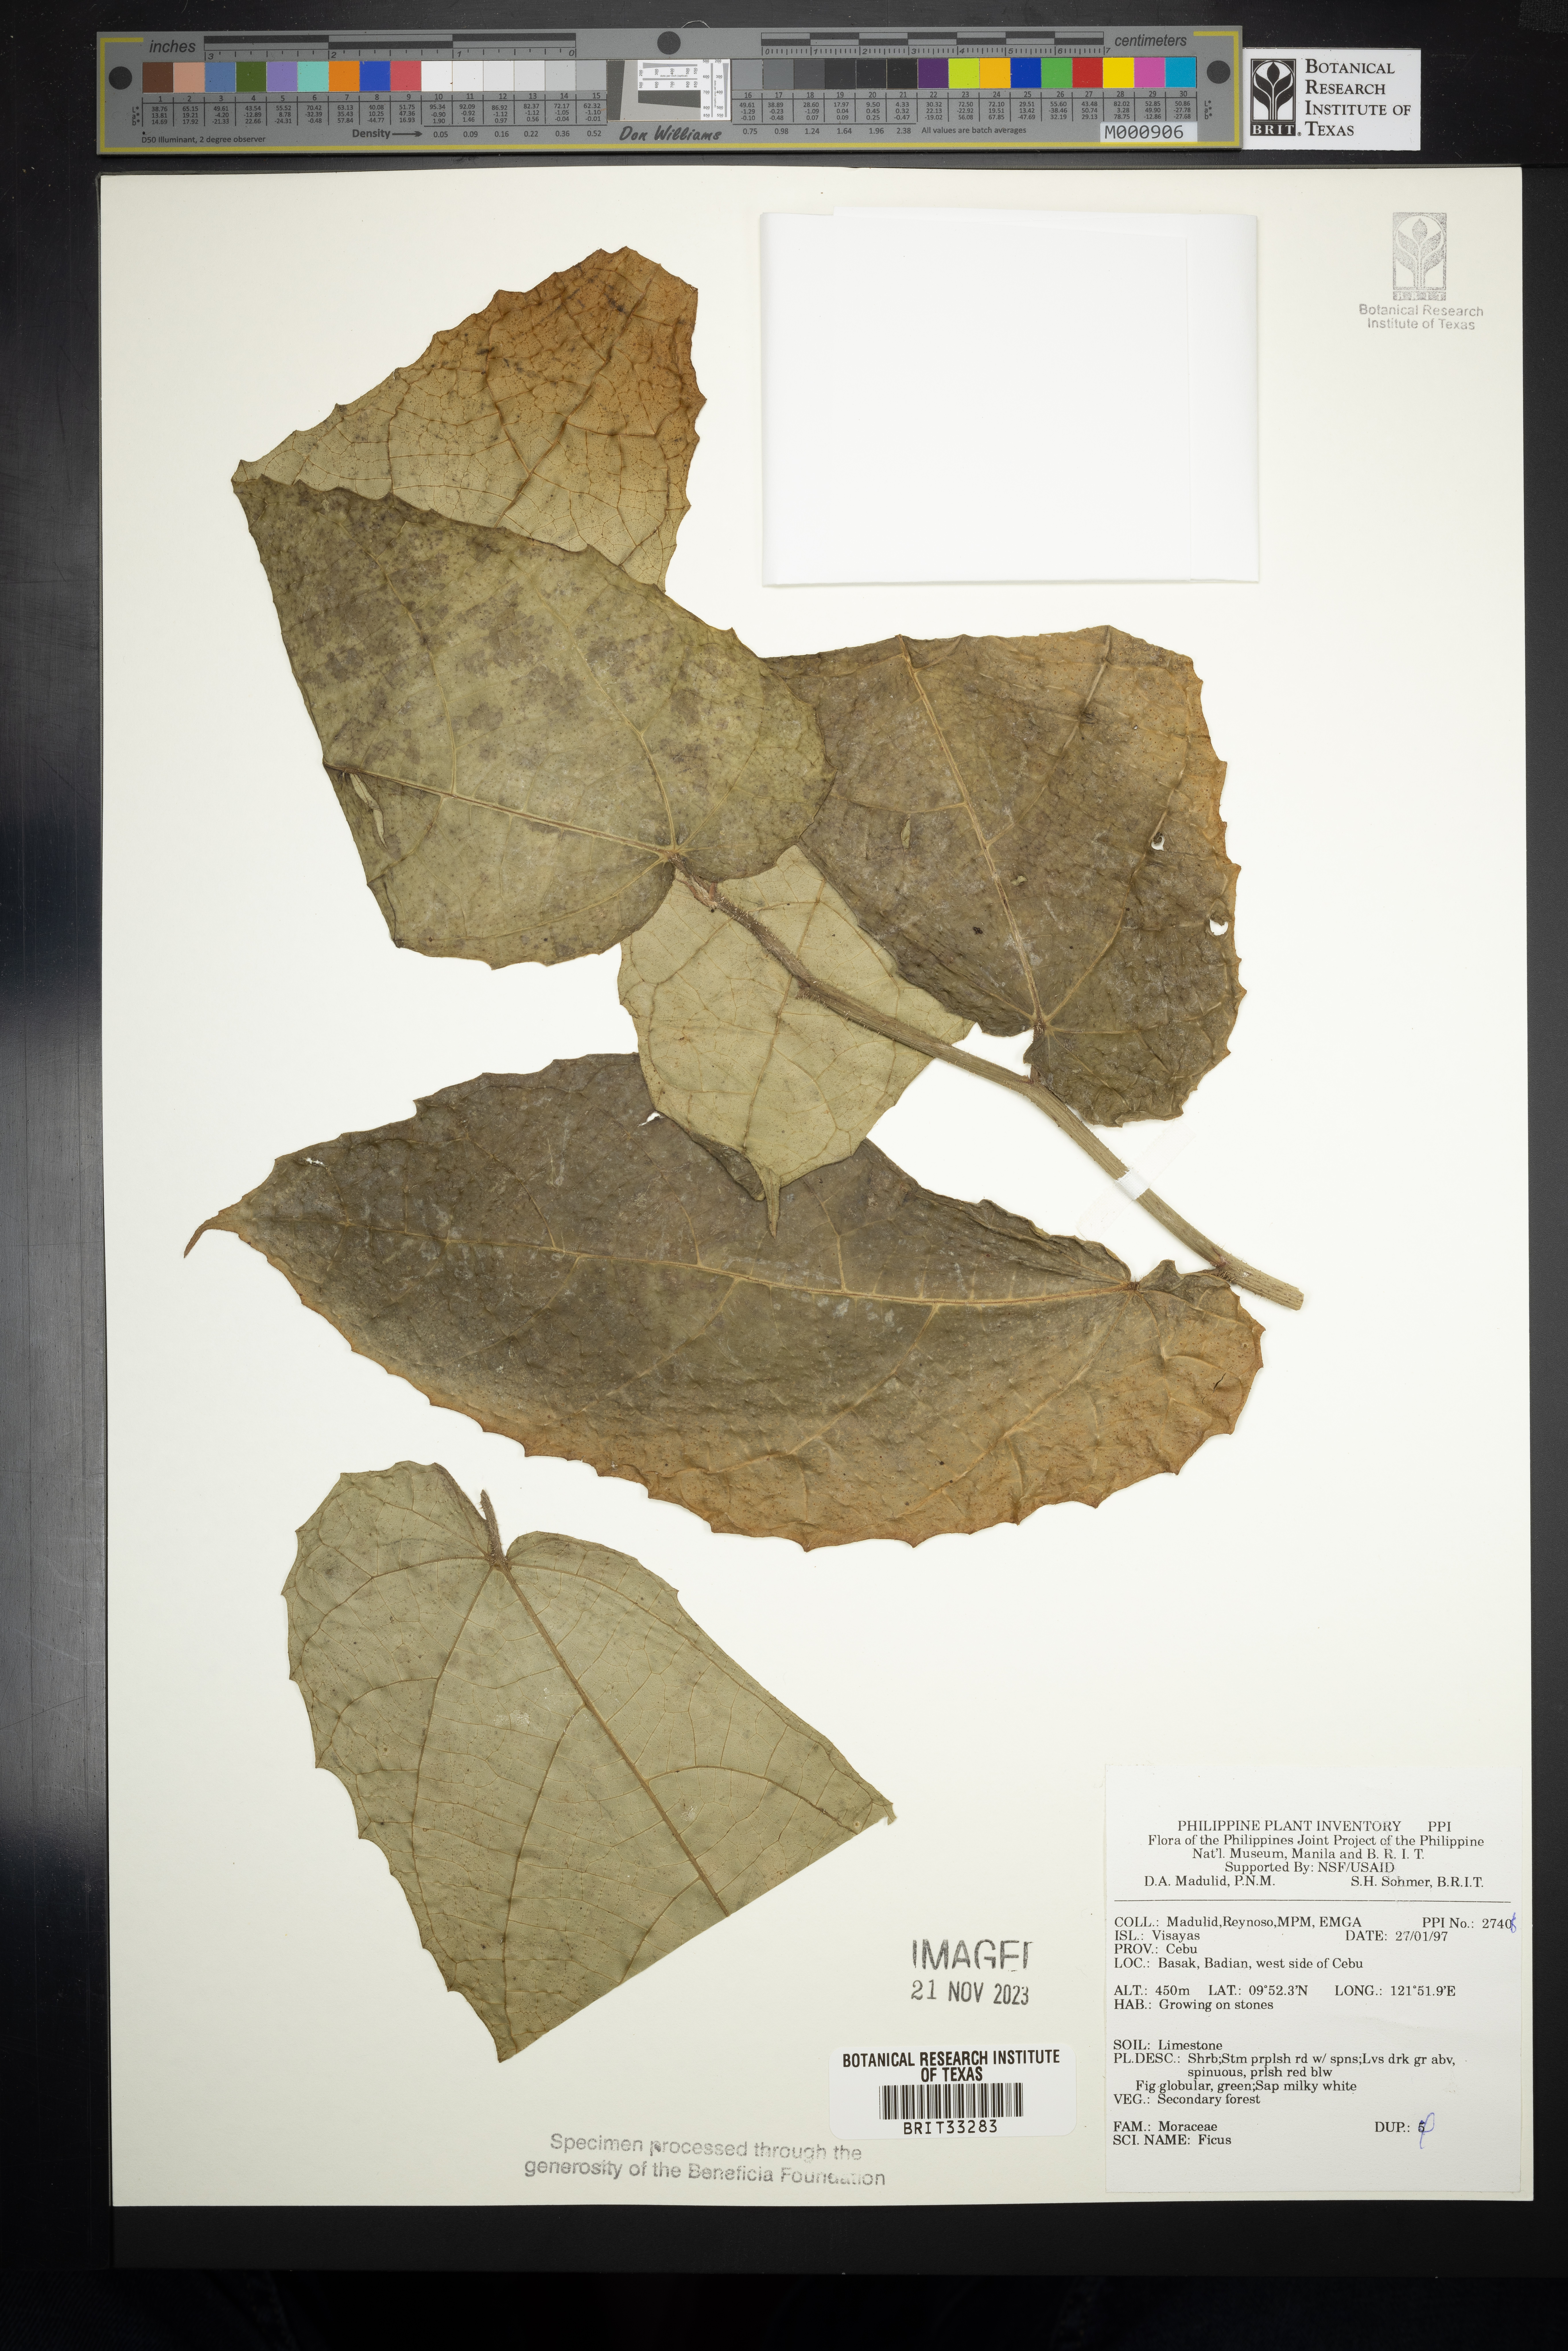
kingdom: Plantae
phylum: Tracheophyta
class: Magnoliopsida
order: Rosales
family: Moraceae
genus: Ficus
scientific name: Ficus
